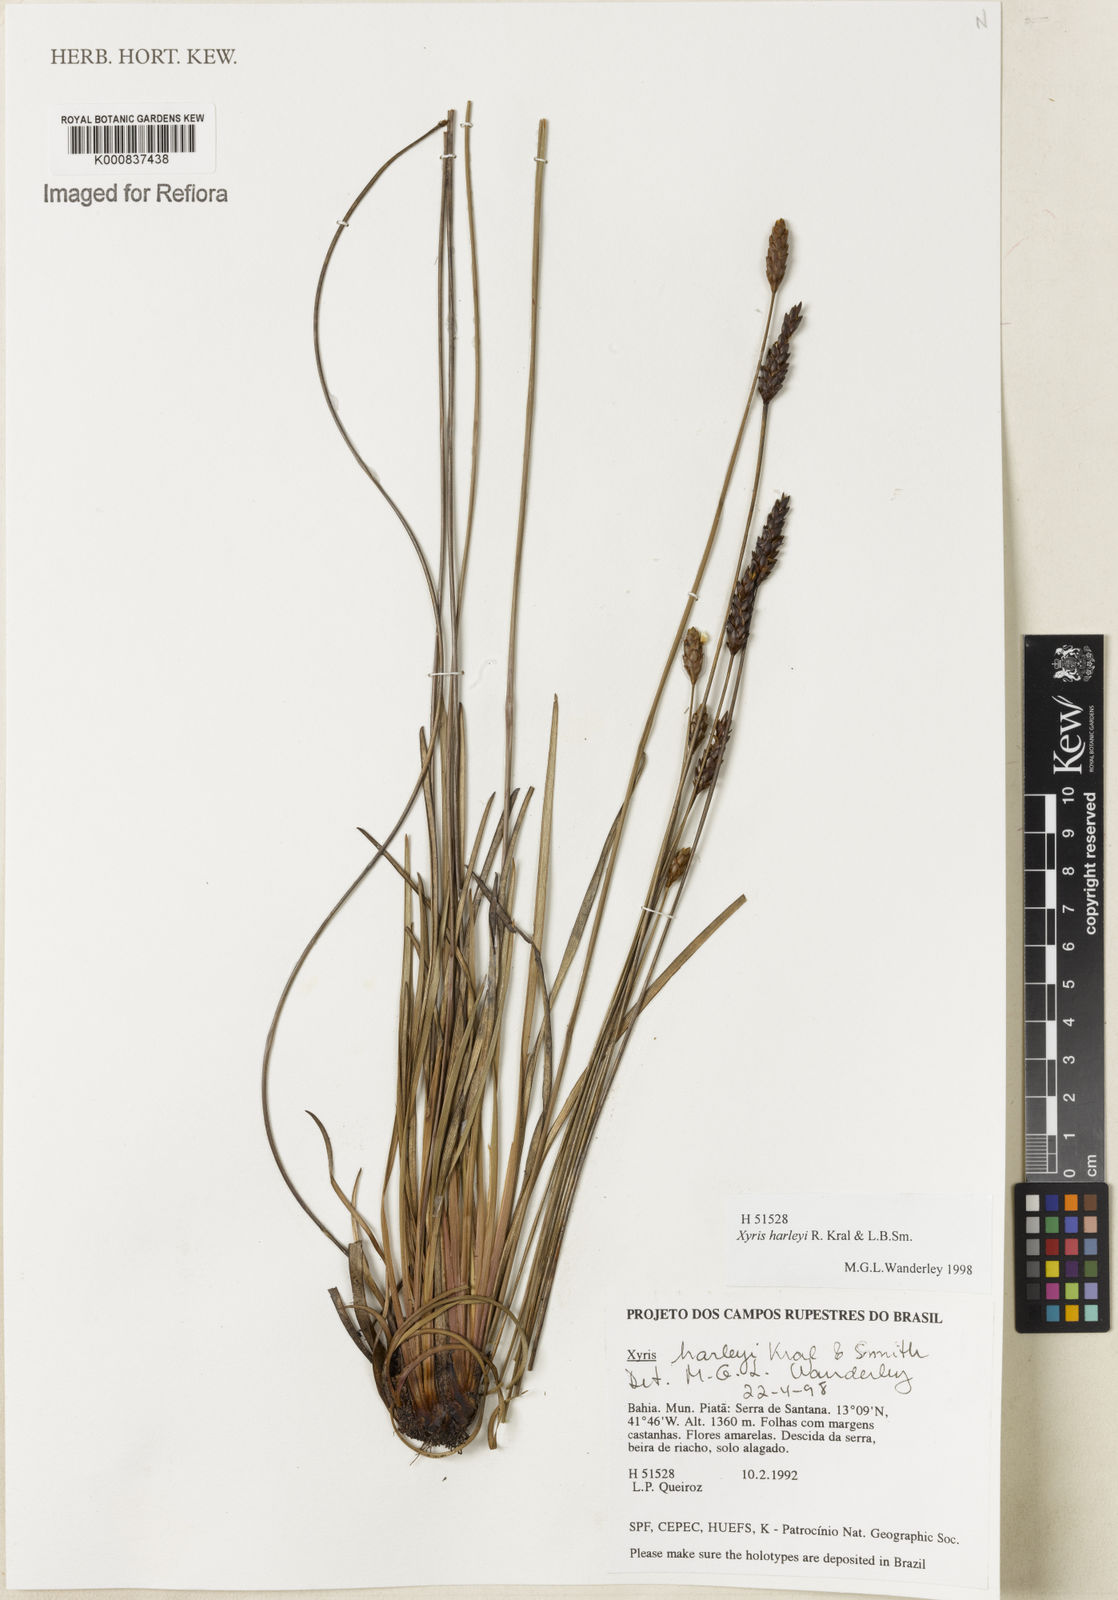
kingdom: Plantae
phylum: Tracheophyta
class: Liliopsida
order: Poales
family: Xyridaceae
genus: Xyris
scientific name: Xyris harleyi
